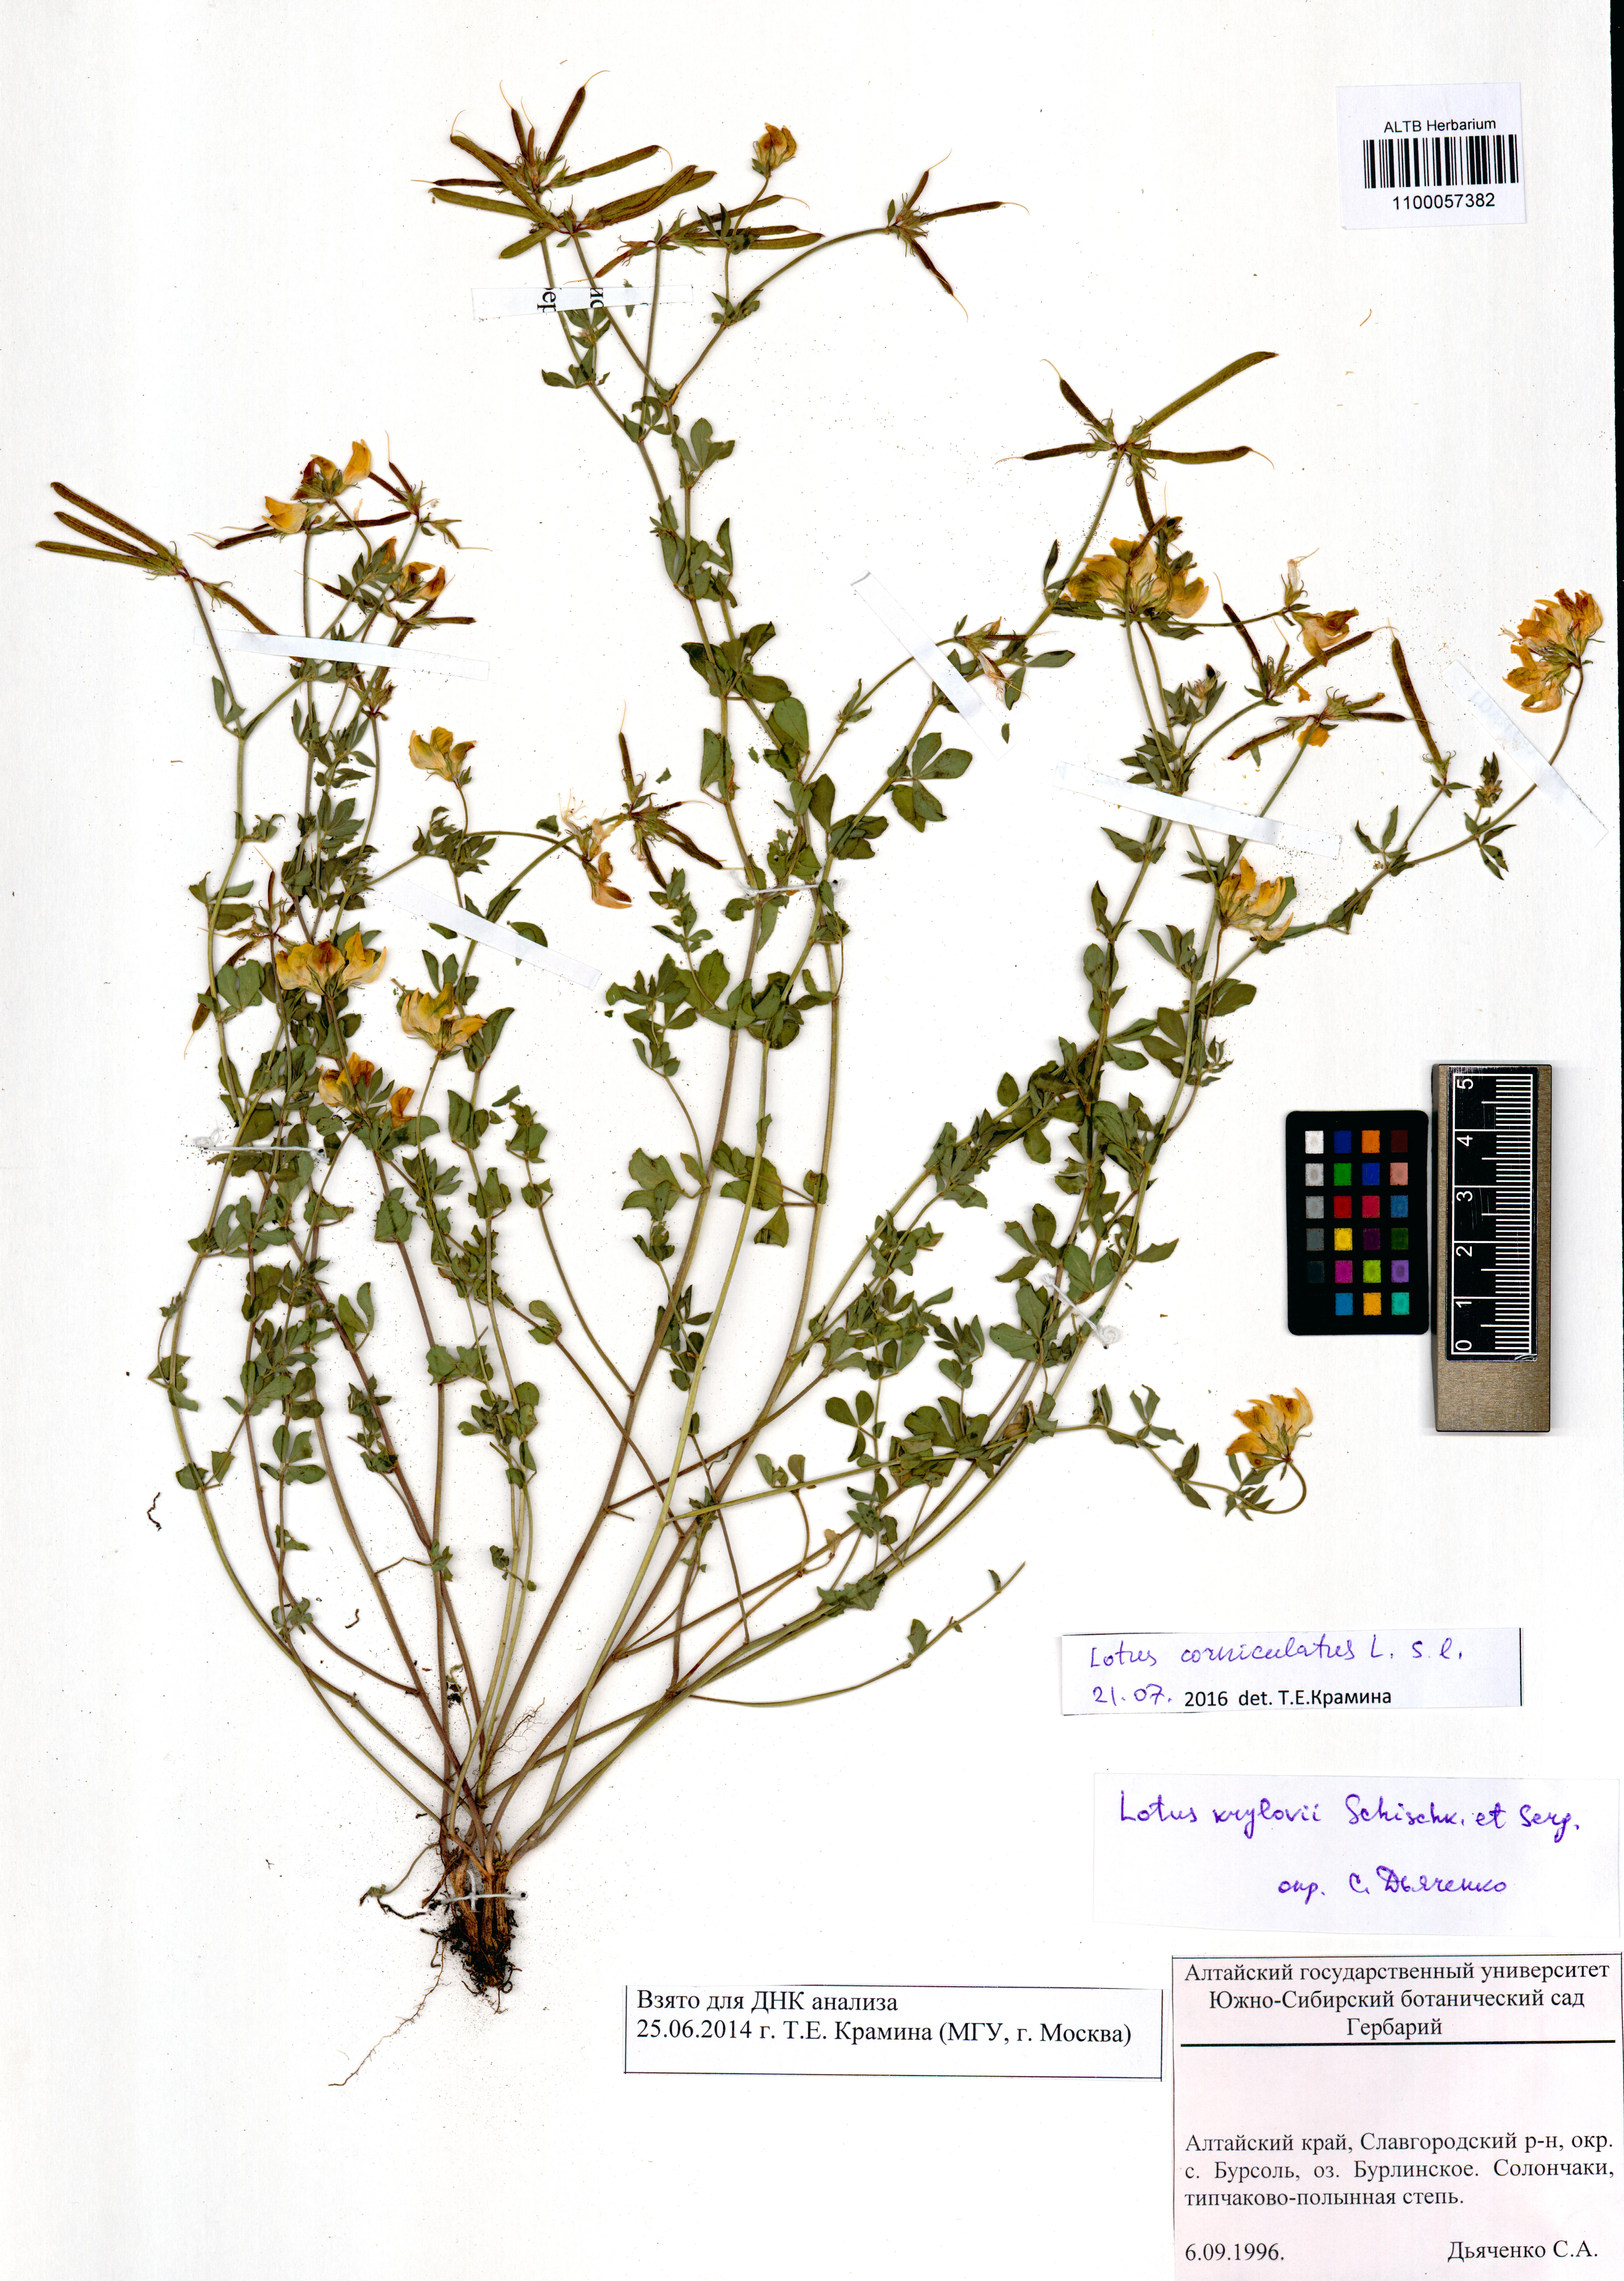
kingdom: Plantae
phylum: Tracheophyta
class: Magnoliopsida
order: Fabales
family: Fabaceae
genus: Lotus
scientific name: Lotus corniculatus
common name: Common bird's-foot-trefoil
